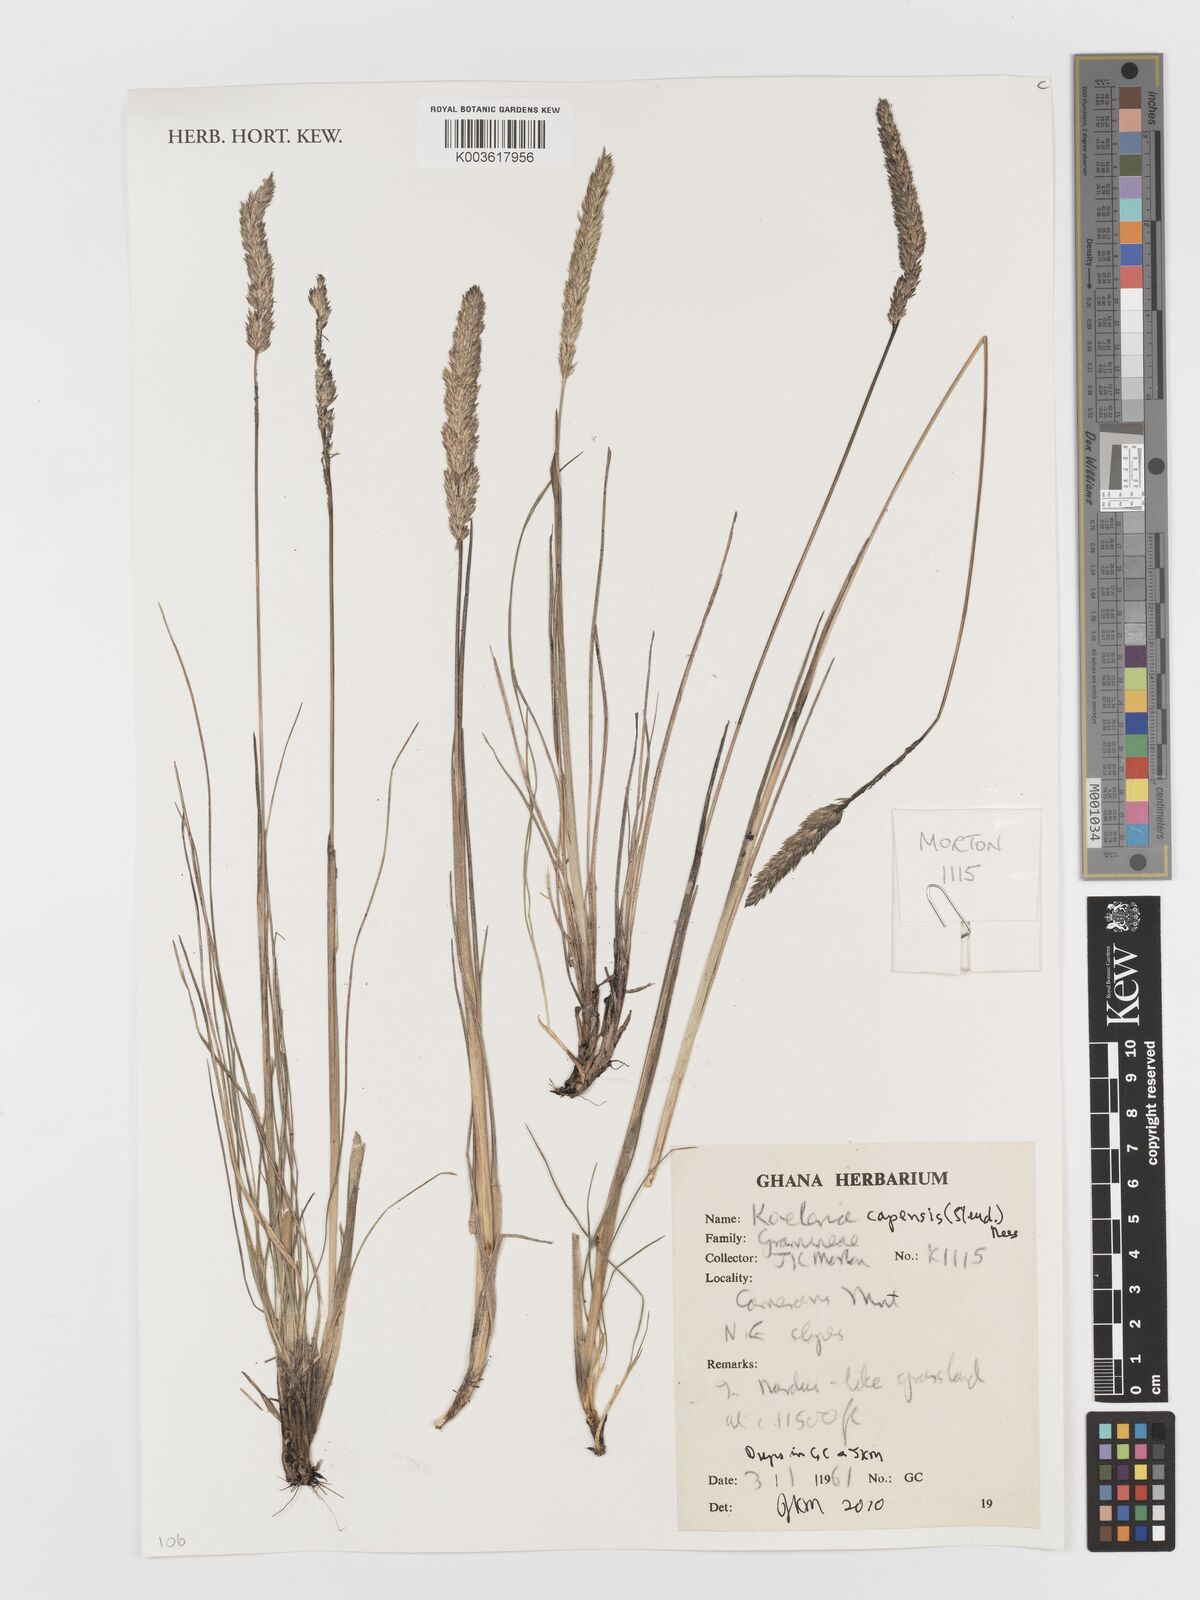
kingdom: Plantae
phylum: Tracheophyta
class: Liliopsida
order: Poales
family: Poaceae
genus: Koeleria
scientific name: Koeleria capensis
